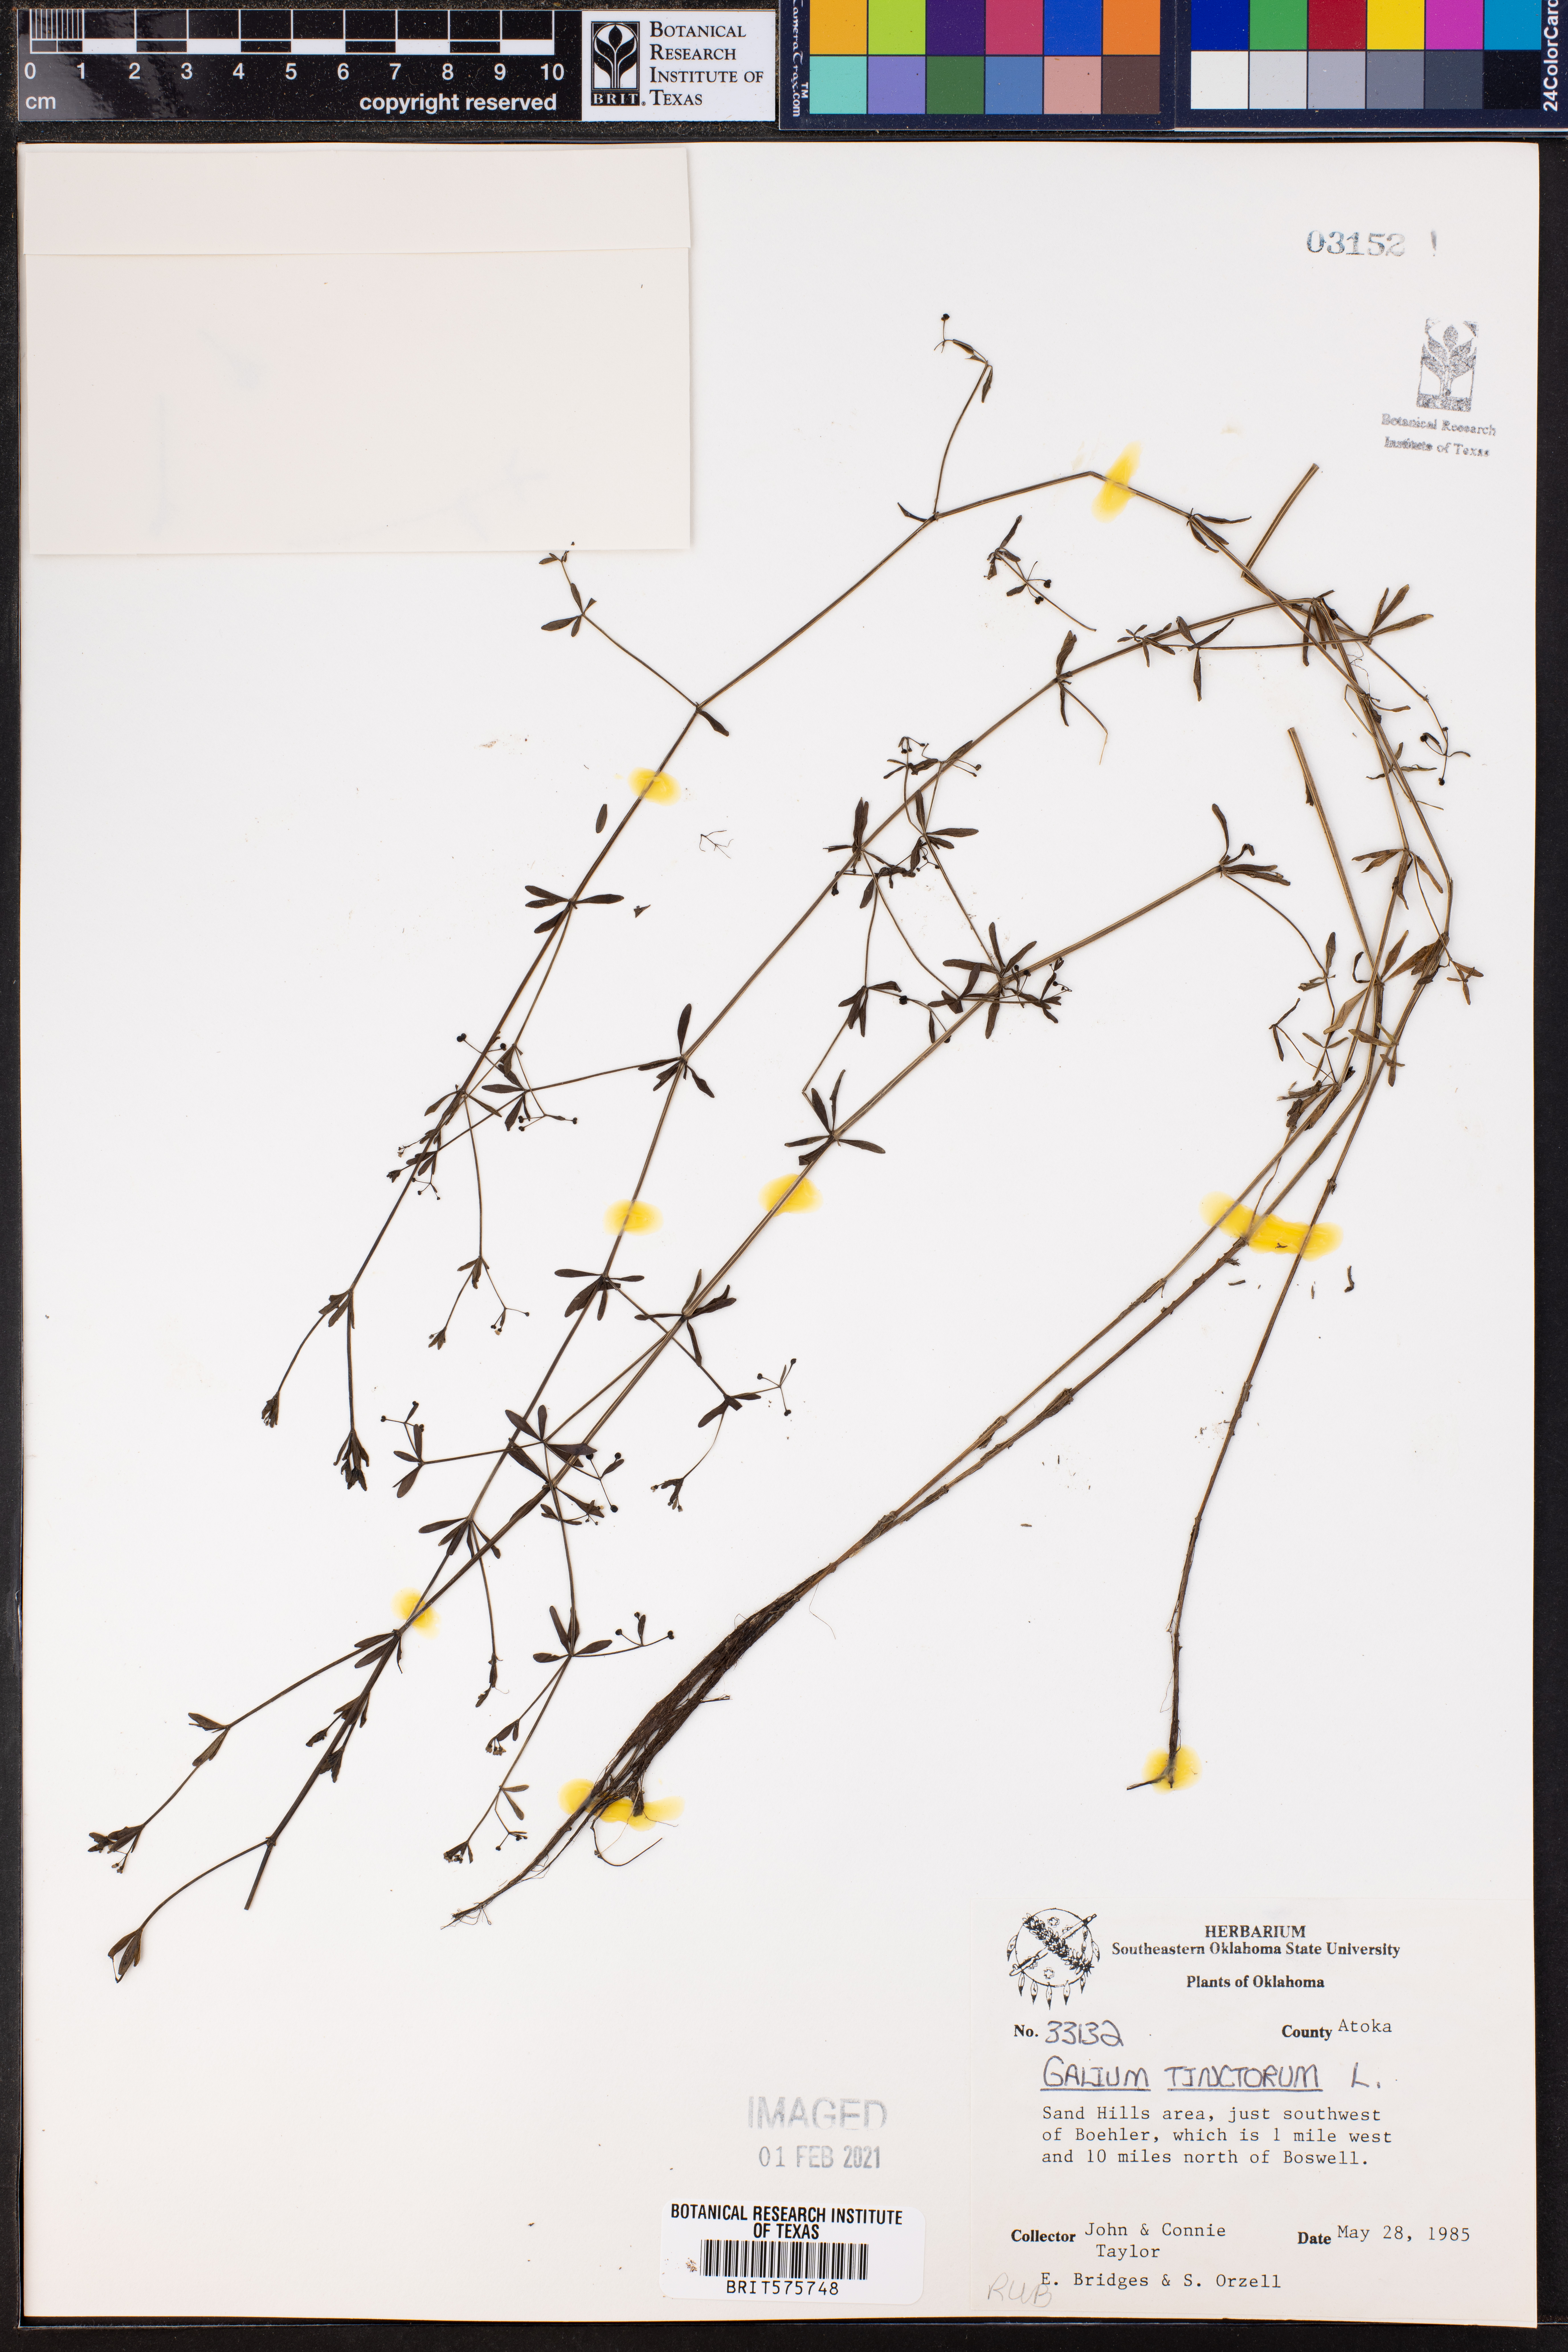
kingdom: Plantae
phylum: Tracheophyta
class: Magnoliopsida
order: Gentianales
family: Rubiaceae
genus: Asperula
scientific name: Asperula tinctoria
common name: Dyer's woodruff
